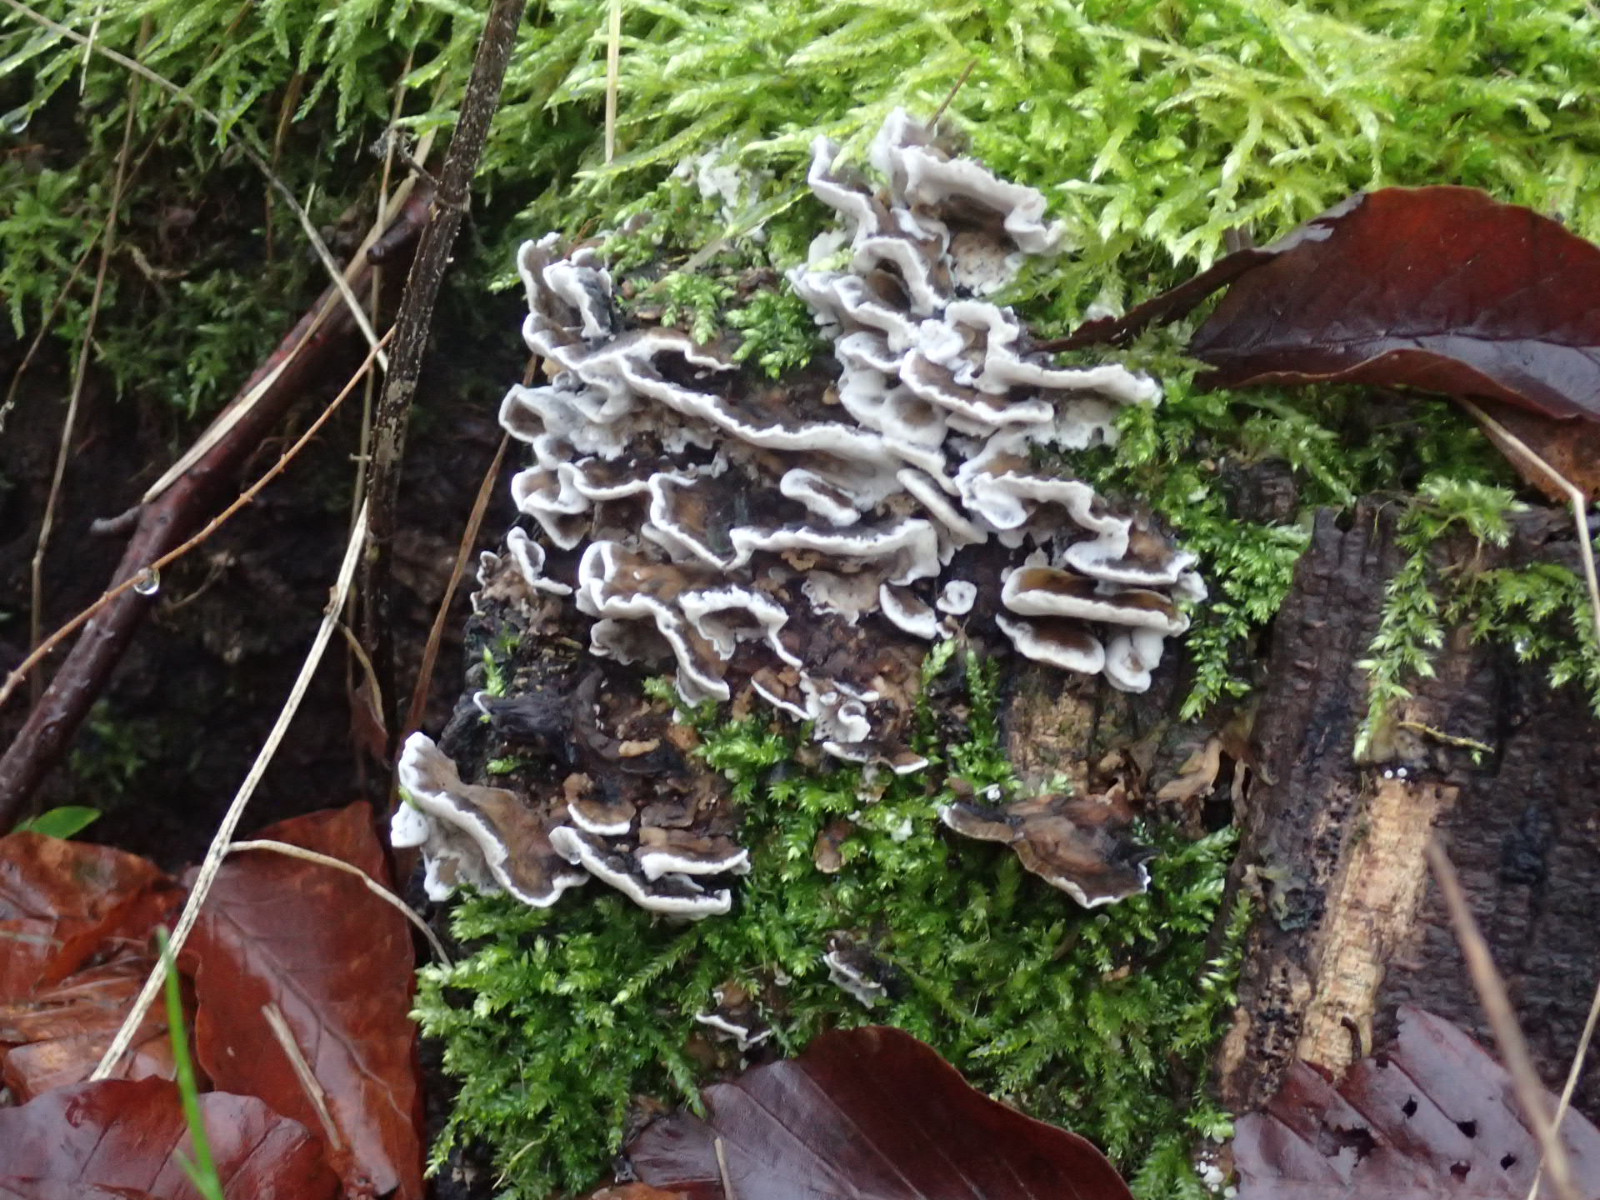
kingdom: Fungi
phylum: Basidiomycota
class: Agaricomycetes
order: Polyporales
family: Phanerochaetaceae
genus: Bjerkandera
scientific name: Bjerkandera adusta
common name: sveden sodporesvamp
